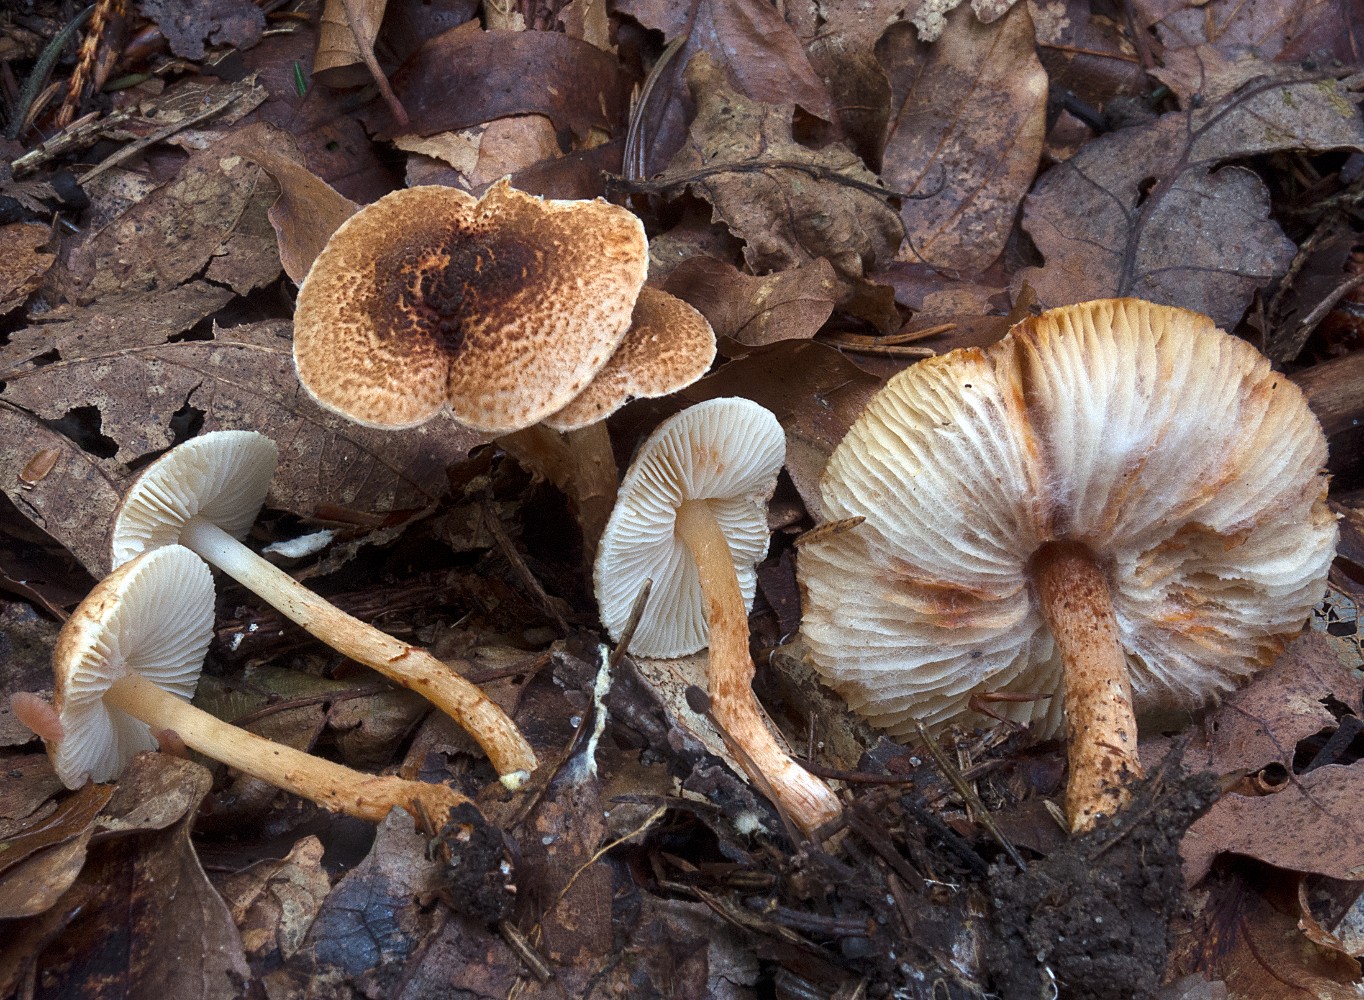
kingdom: Fungi
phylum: Basidiomycota
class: Agaricomycetes
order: Agaricales
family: Agaricaceae
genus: Lepiota
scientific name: Lepiota castanea
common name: kastaniebrun parasolhat
